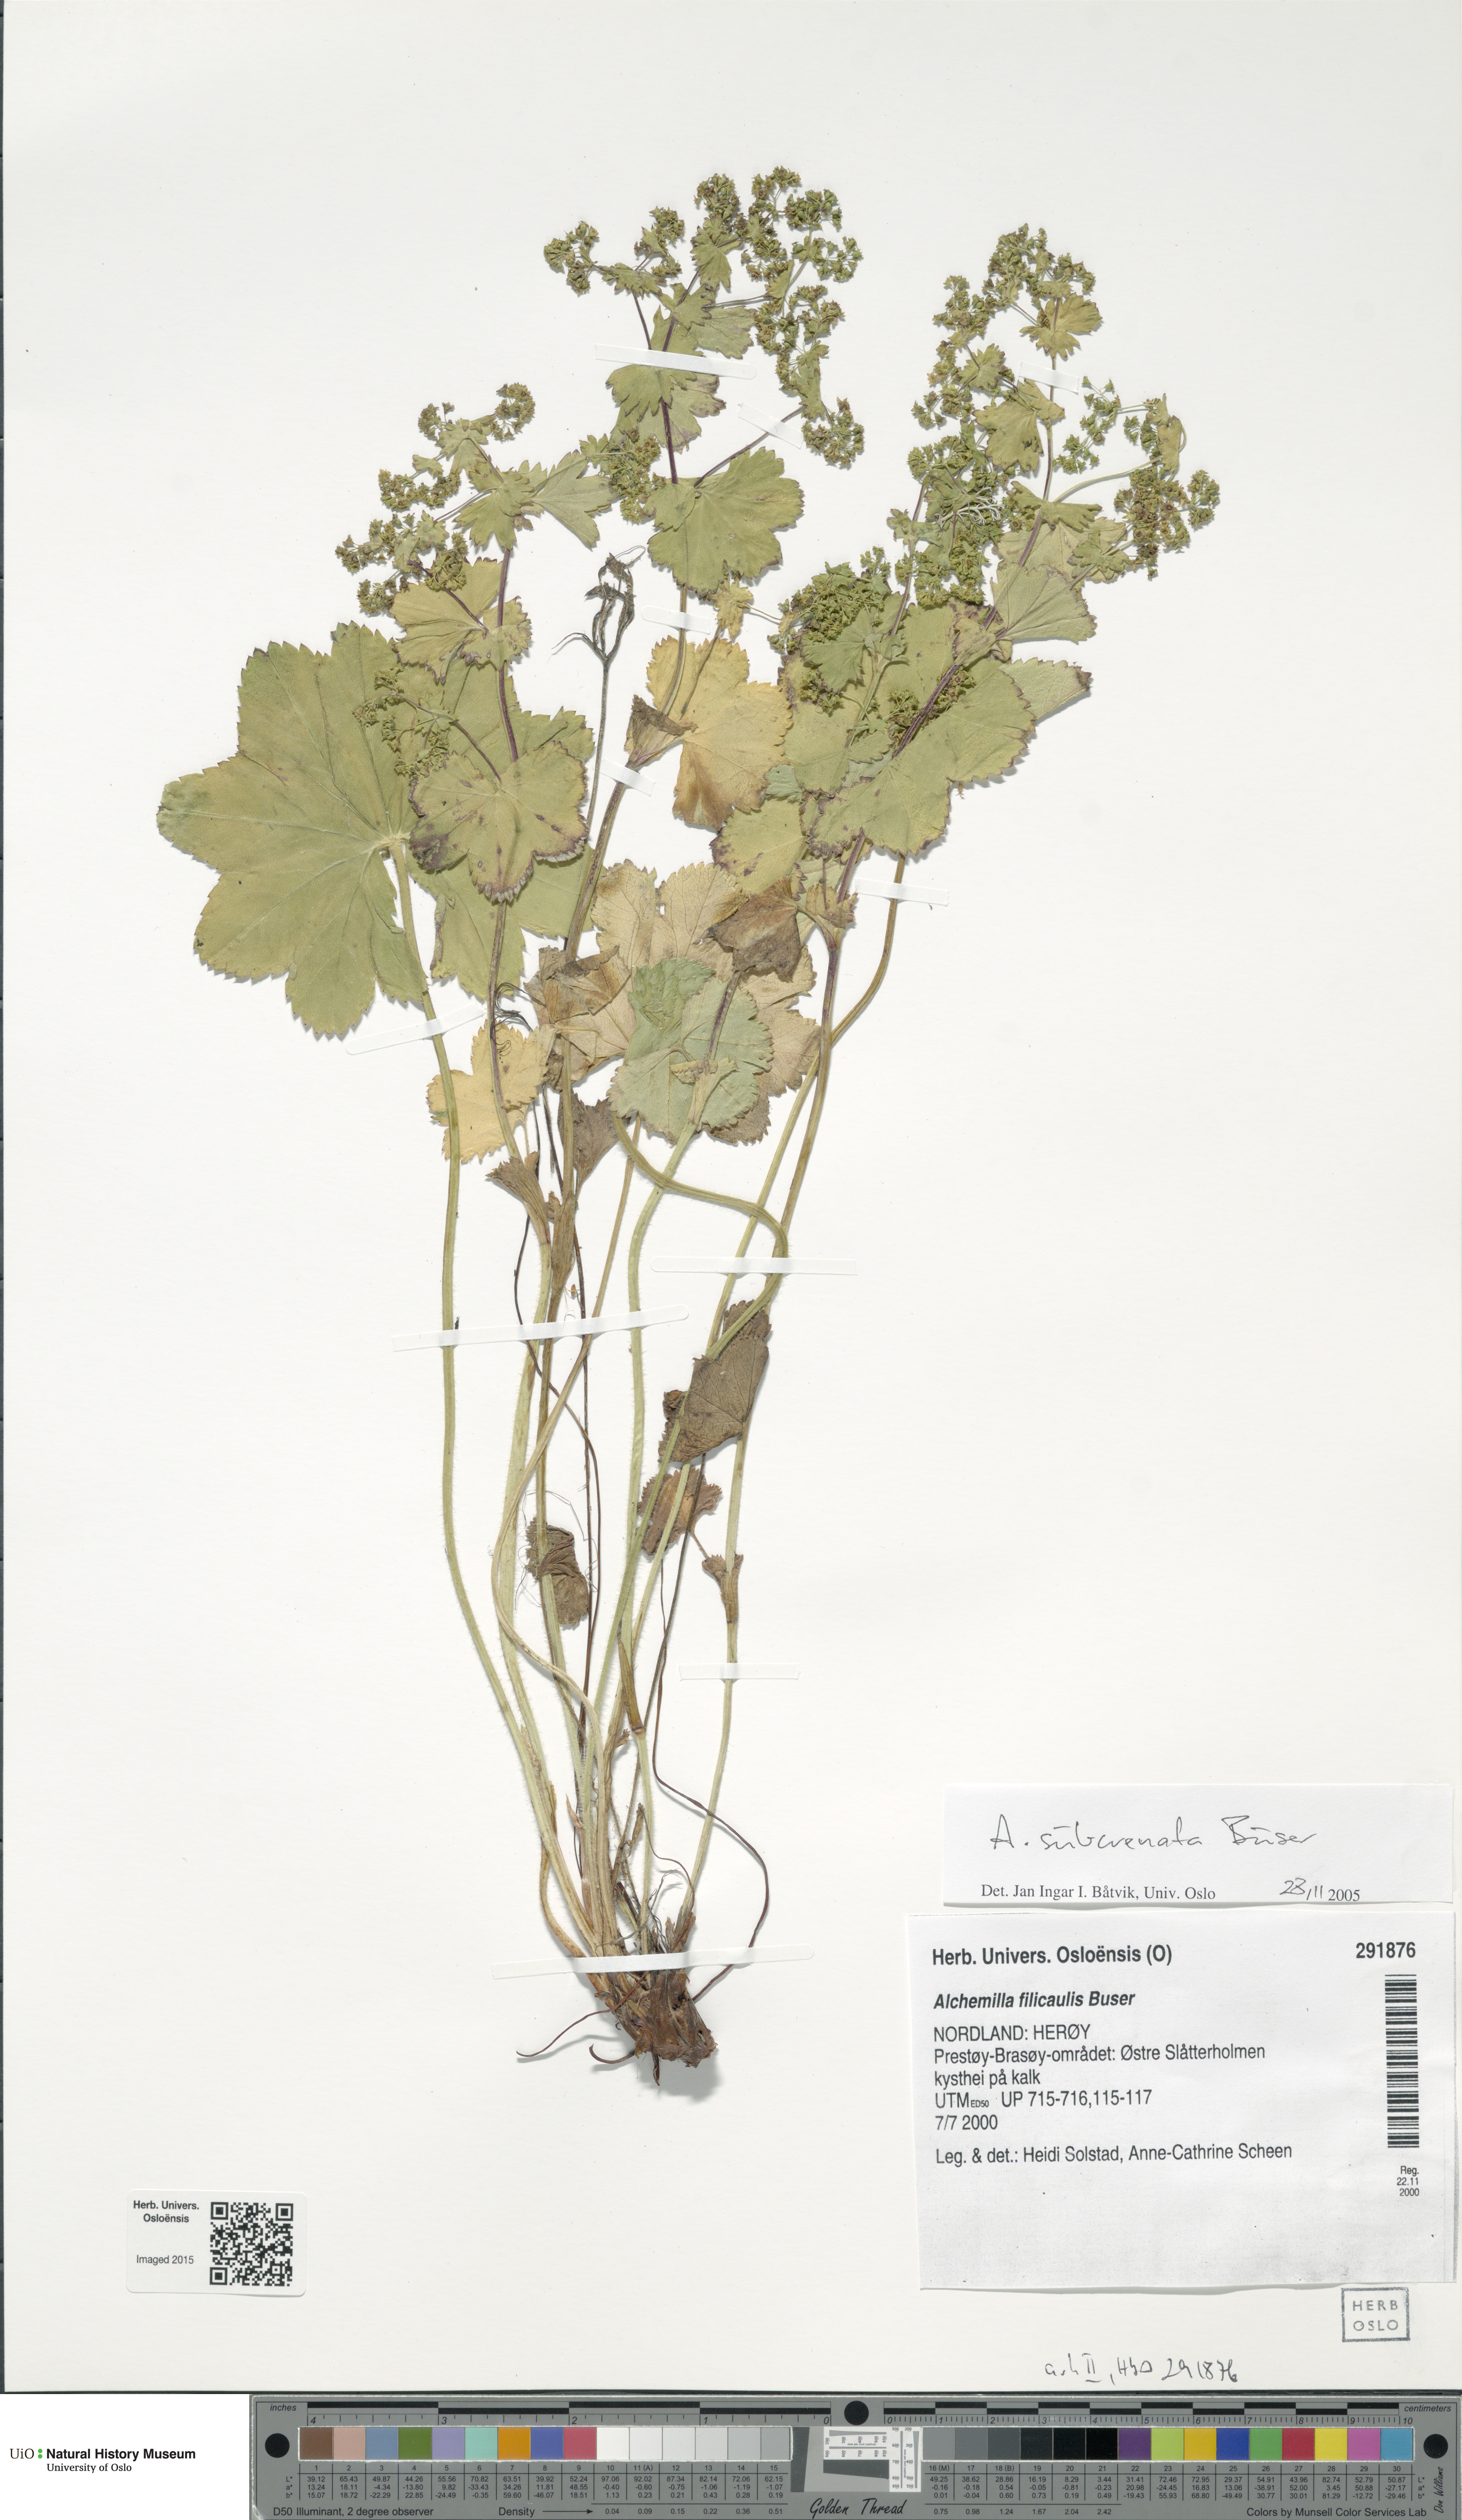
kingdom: Plantae
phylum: Tracheophyta
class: Magnoliopsida
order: Rosales
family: Rosaceae
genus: Alchemilla
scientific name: Alchemilla filicaulis
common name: Hairy lady's-mantle
